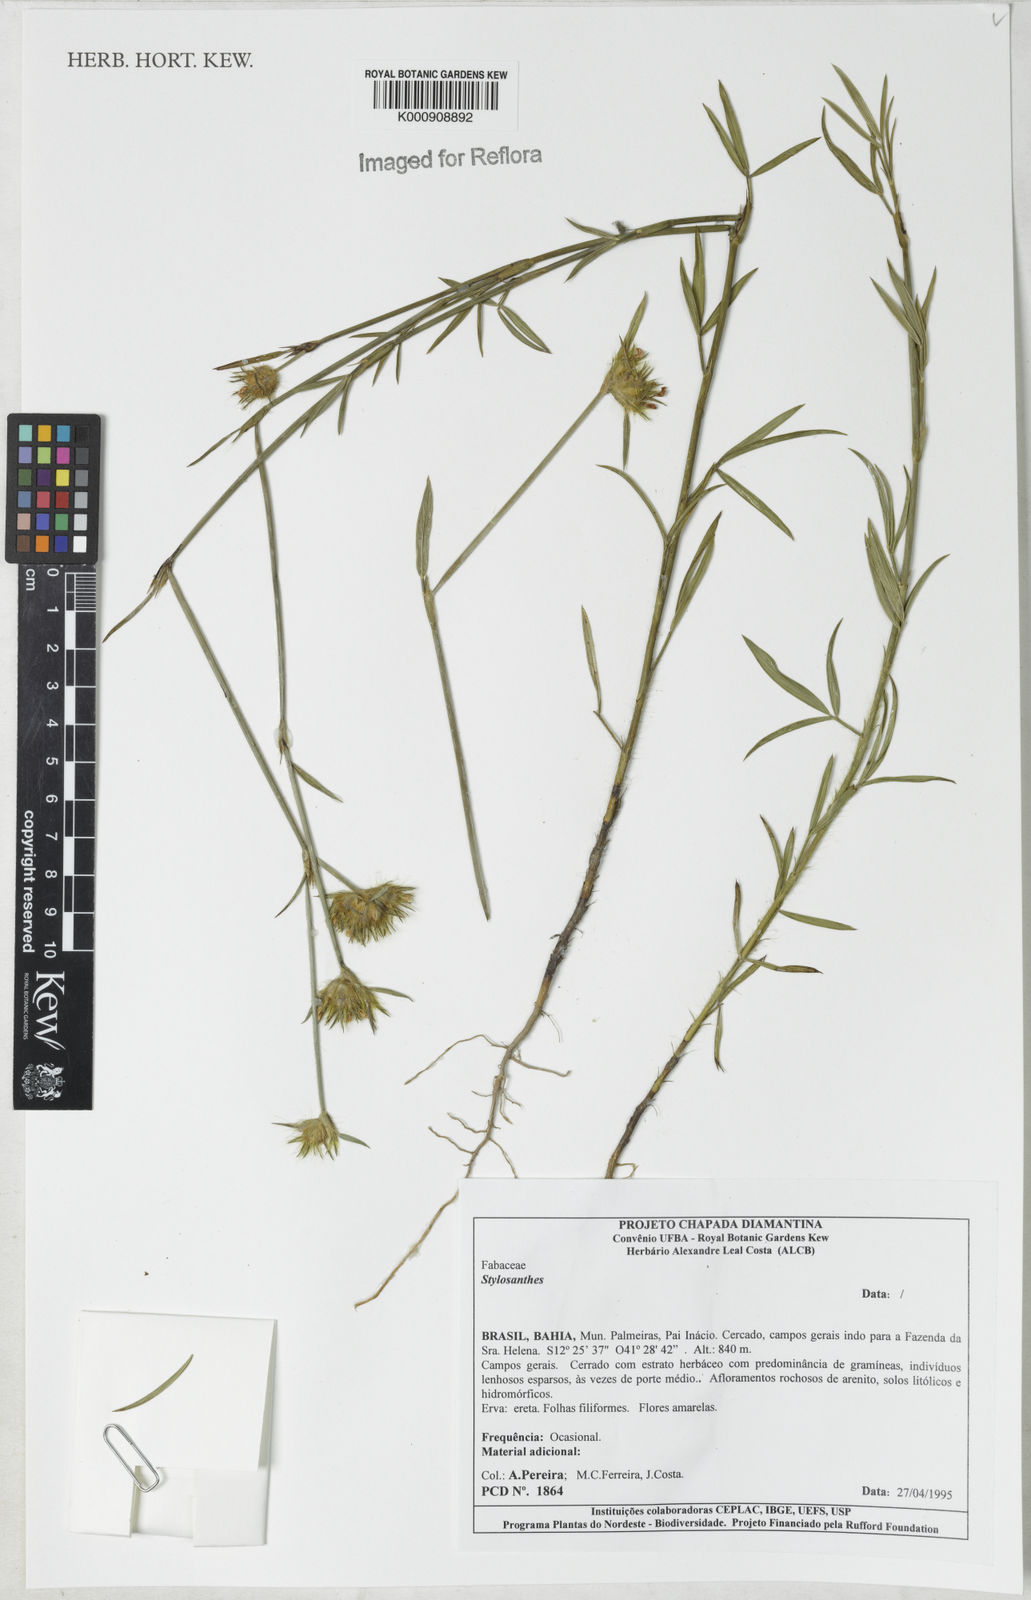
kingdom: Plantae
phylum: Tracheophyta
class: Magnoliopsida
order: Fabales
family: Fabaceae
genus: Stylosanthes
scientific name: Stylosanthes
